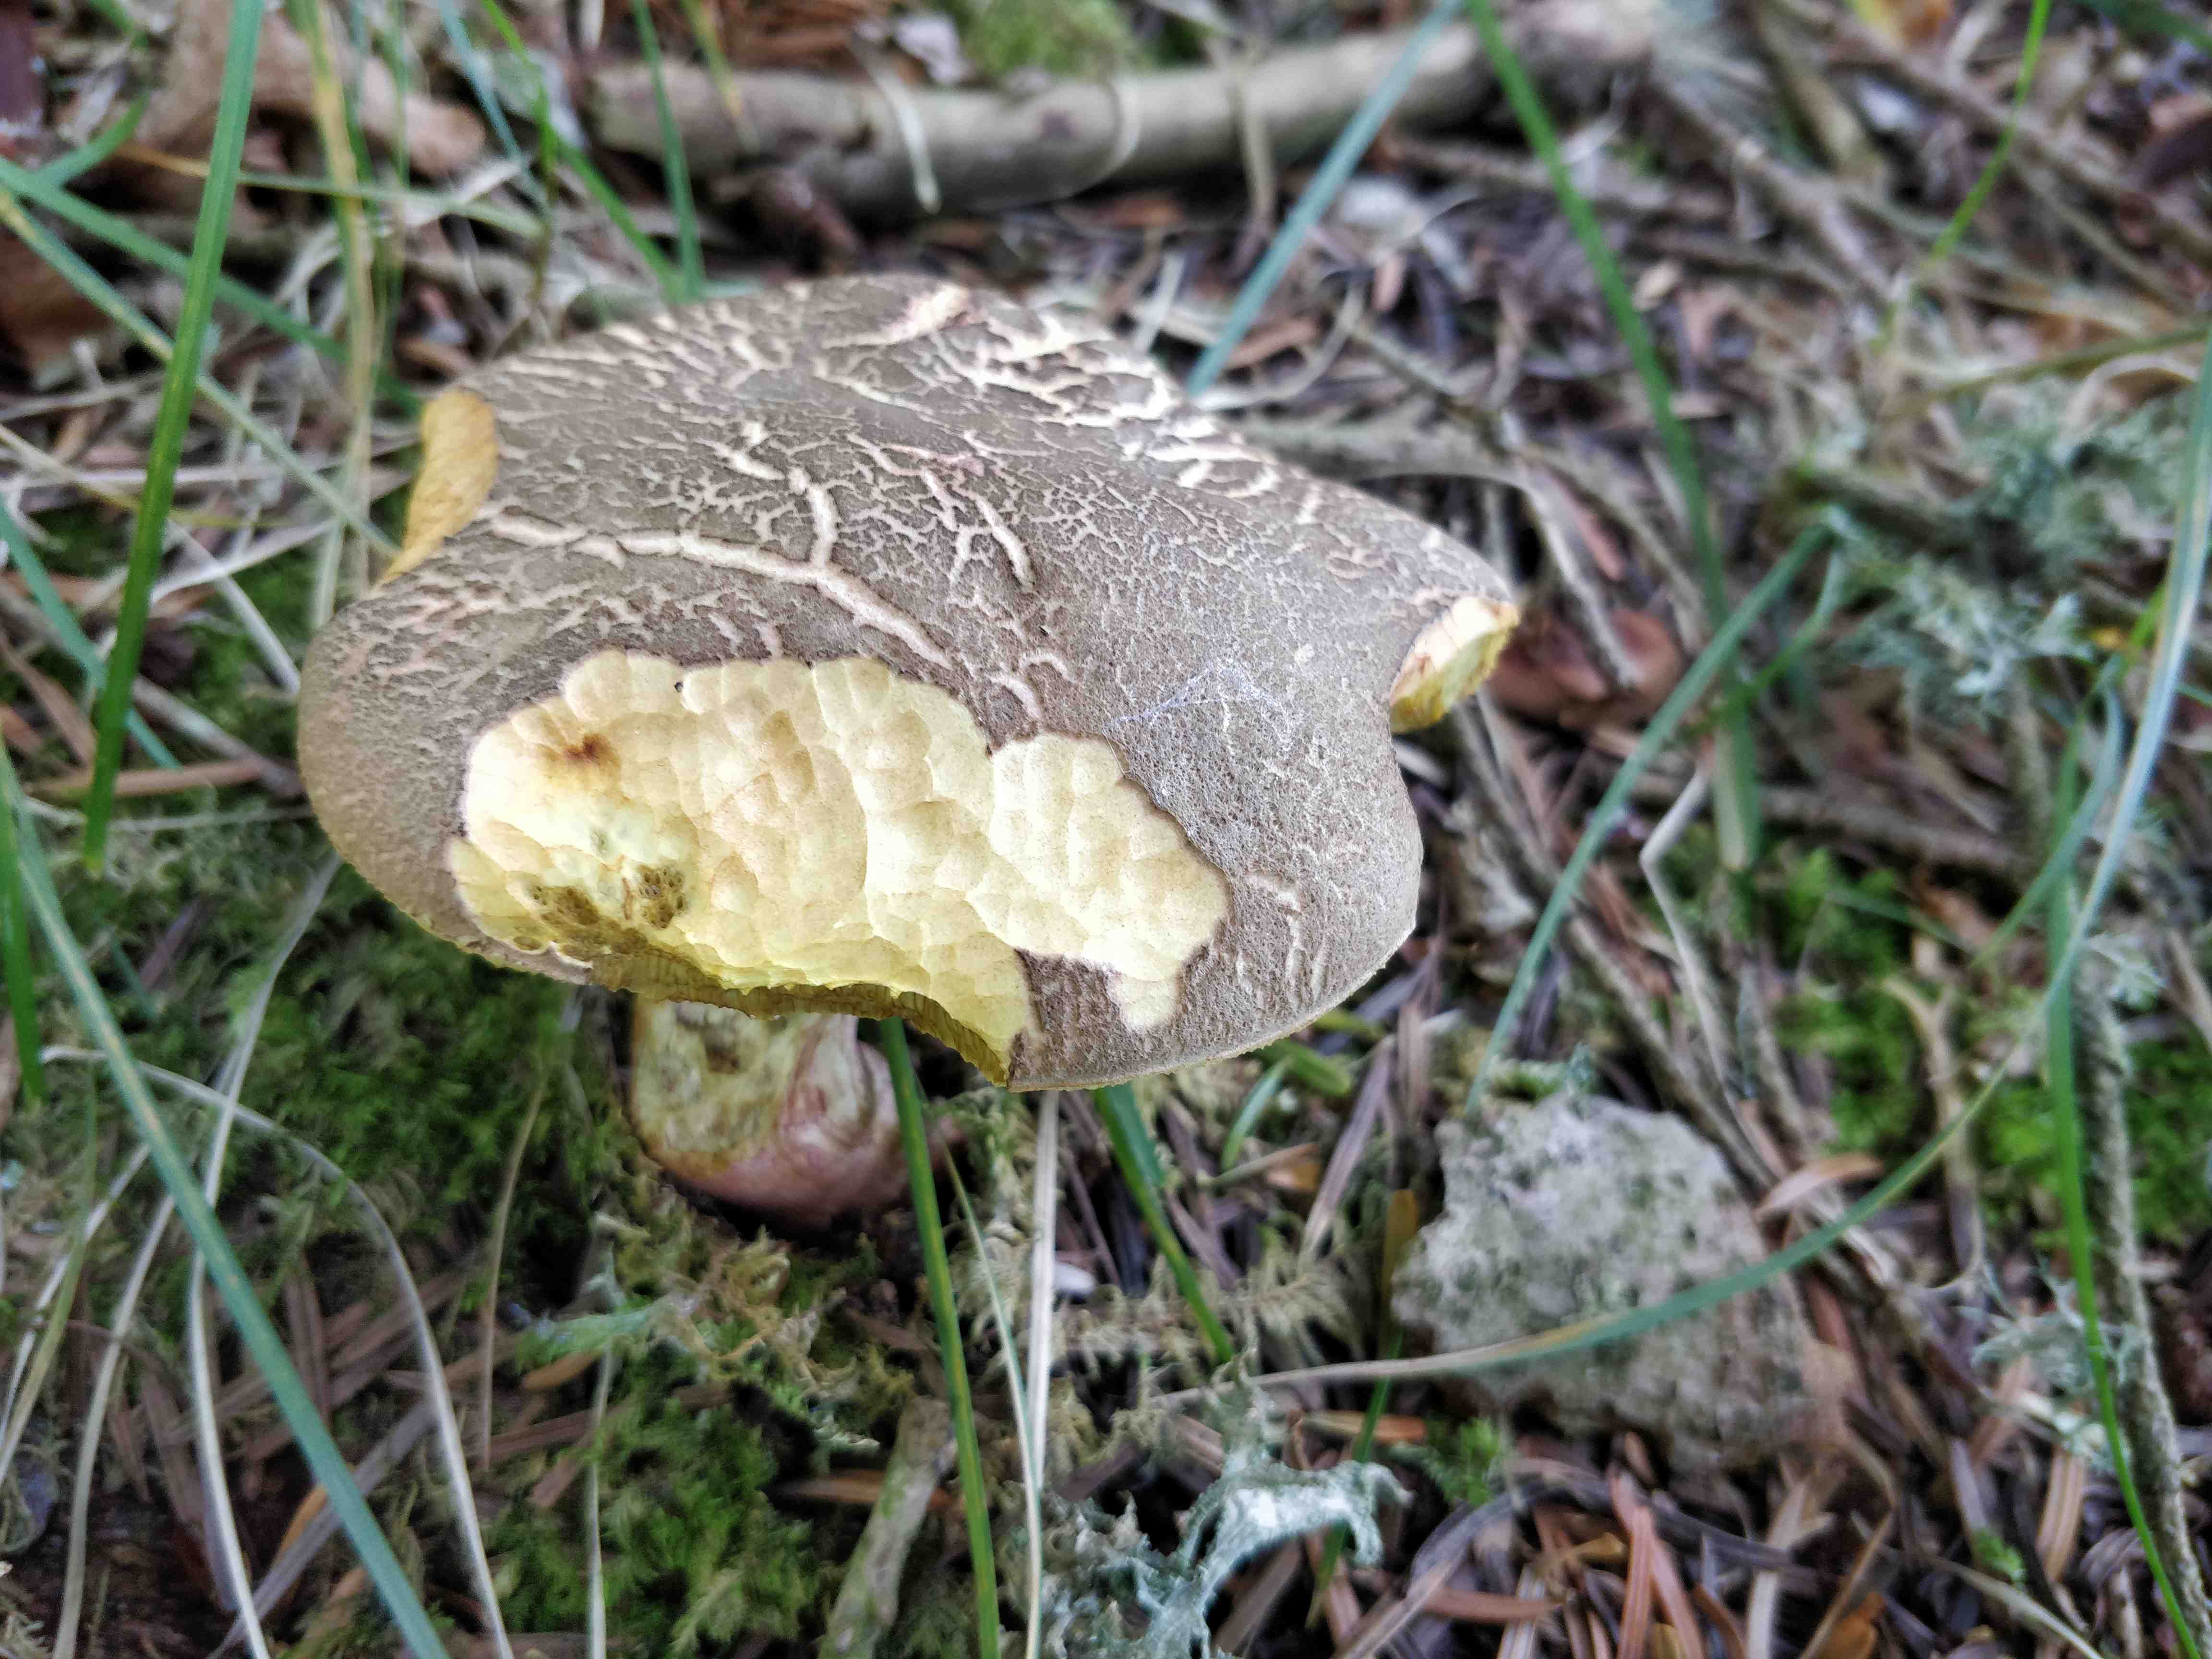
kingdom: Fungi
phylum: Basidiomycota
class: Agaricomycetes
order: Boletales
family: Boletaceae
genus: Xerocomellus
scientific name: Xerocomellus
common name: dværgrørhat
